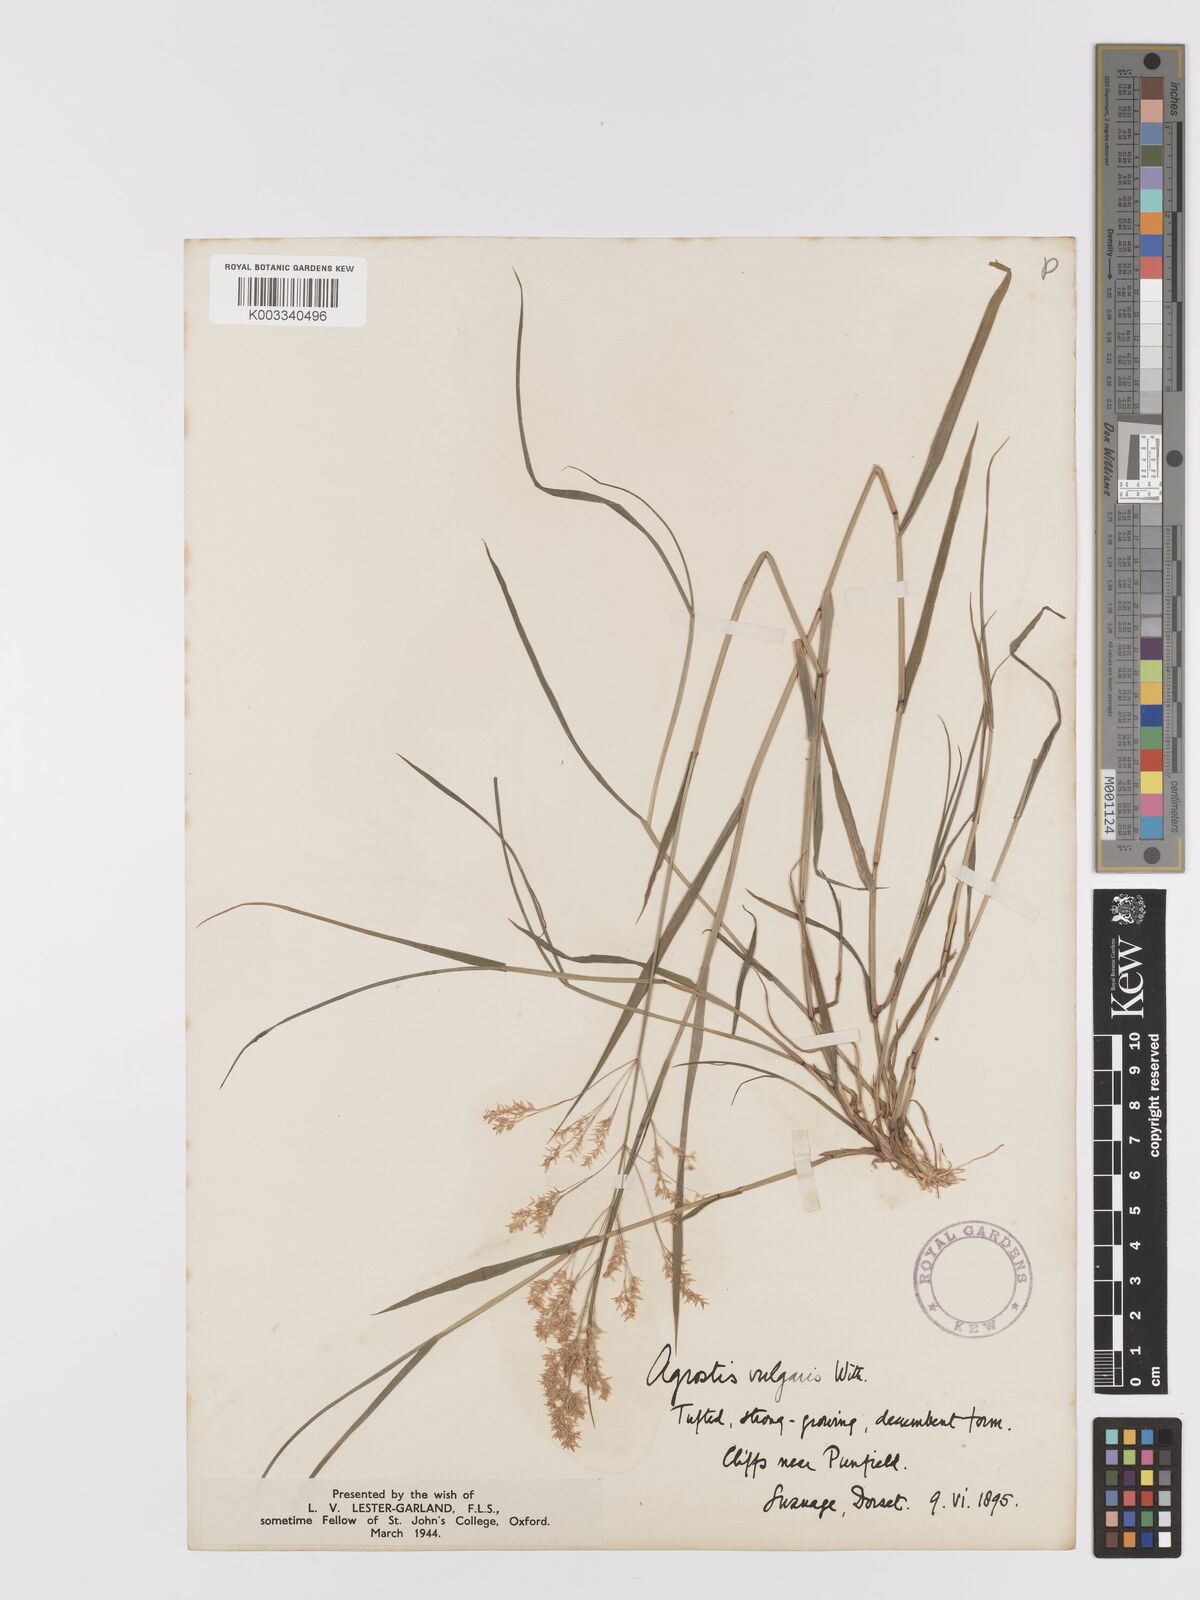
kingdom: Plantae
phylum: Tracheophyta
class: Liliopsida
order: Poales
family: Poaceae
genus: Agrostis
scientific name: Agrostis capillaris
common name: Colonial bentgrass
